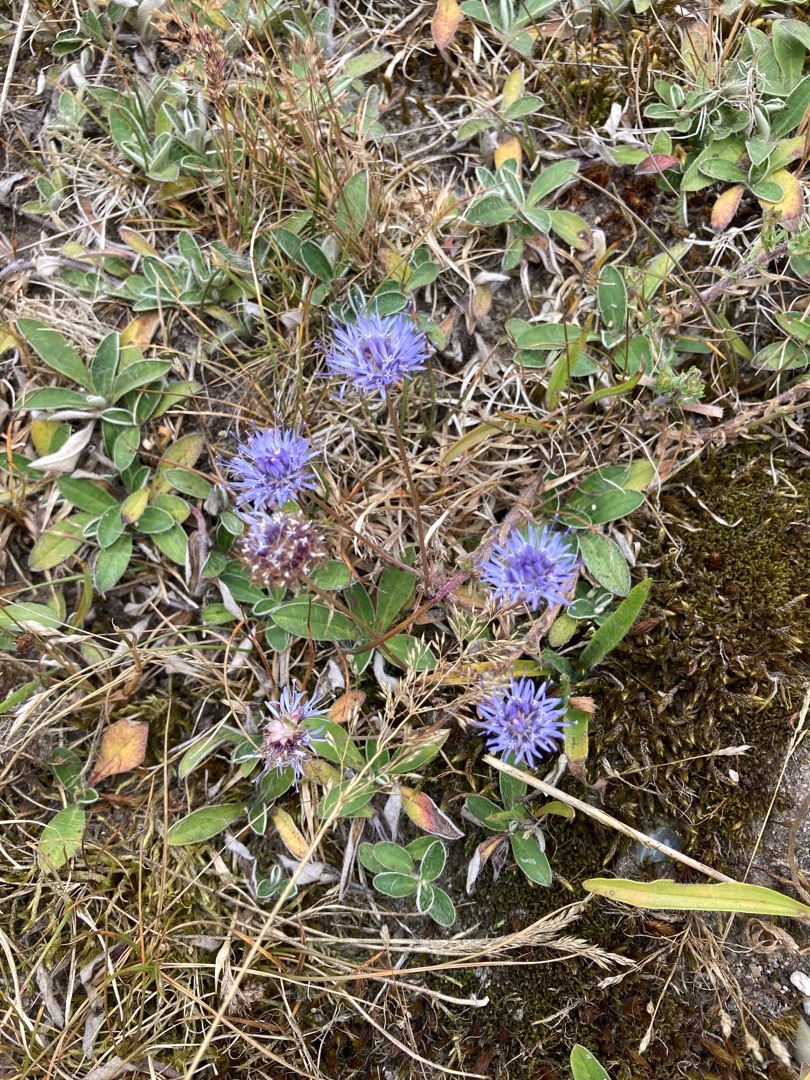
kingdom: Plantae
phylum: Tracheophyta
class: Magnoliopsida
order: Asterales
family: Campanulaceae
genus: Jasione
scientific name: Jasione montana
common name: Blåmunke
